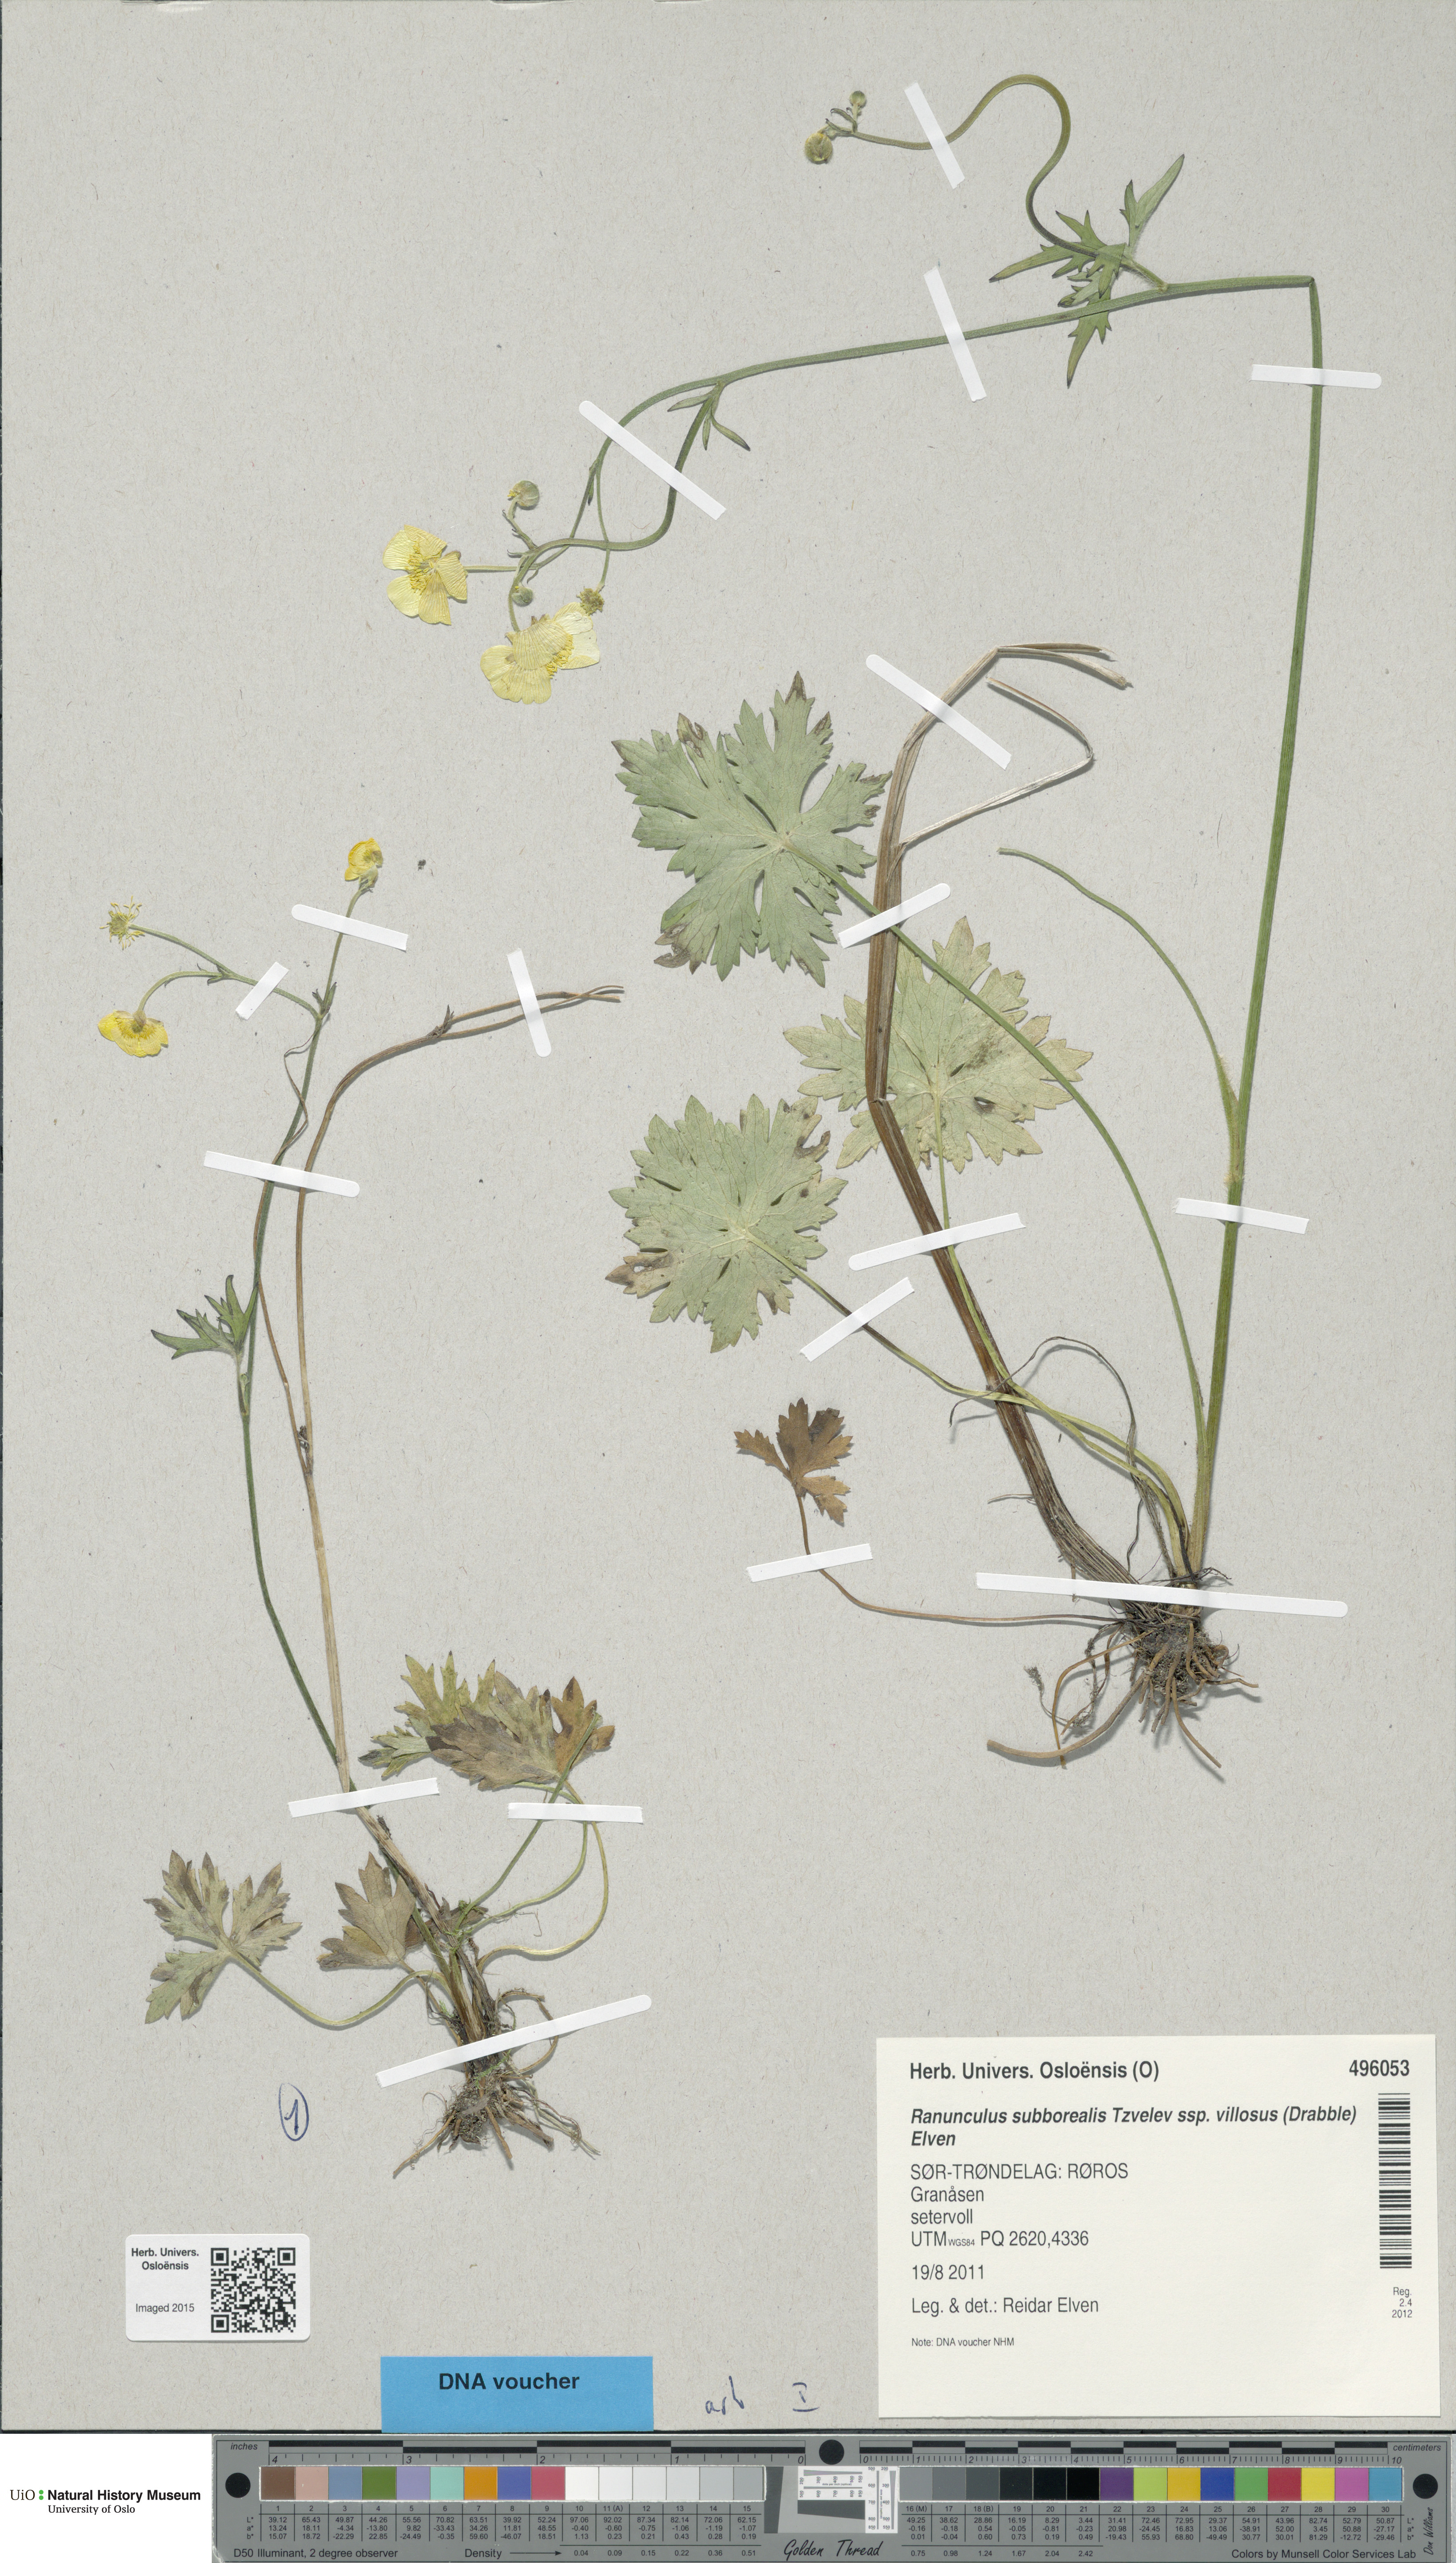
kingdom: Plantae
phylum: Tracheophyta
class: Magnoliopsida
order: Ranunculales
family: Ranunculaceae
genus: Ranunculus
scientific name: Ranunculus propinquus
